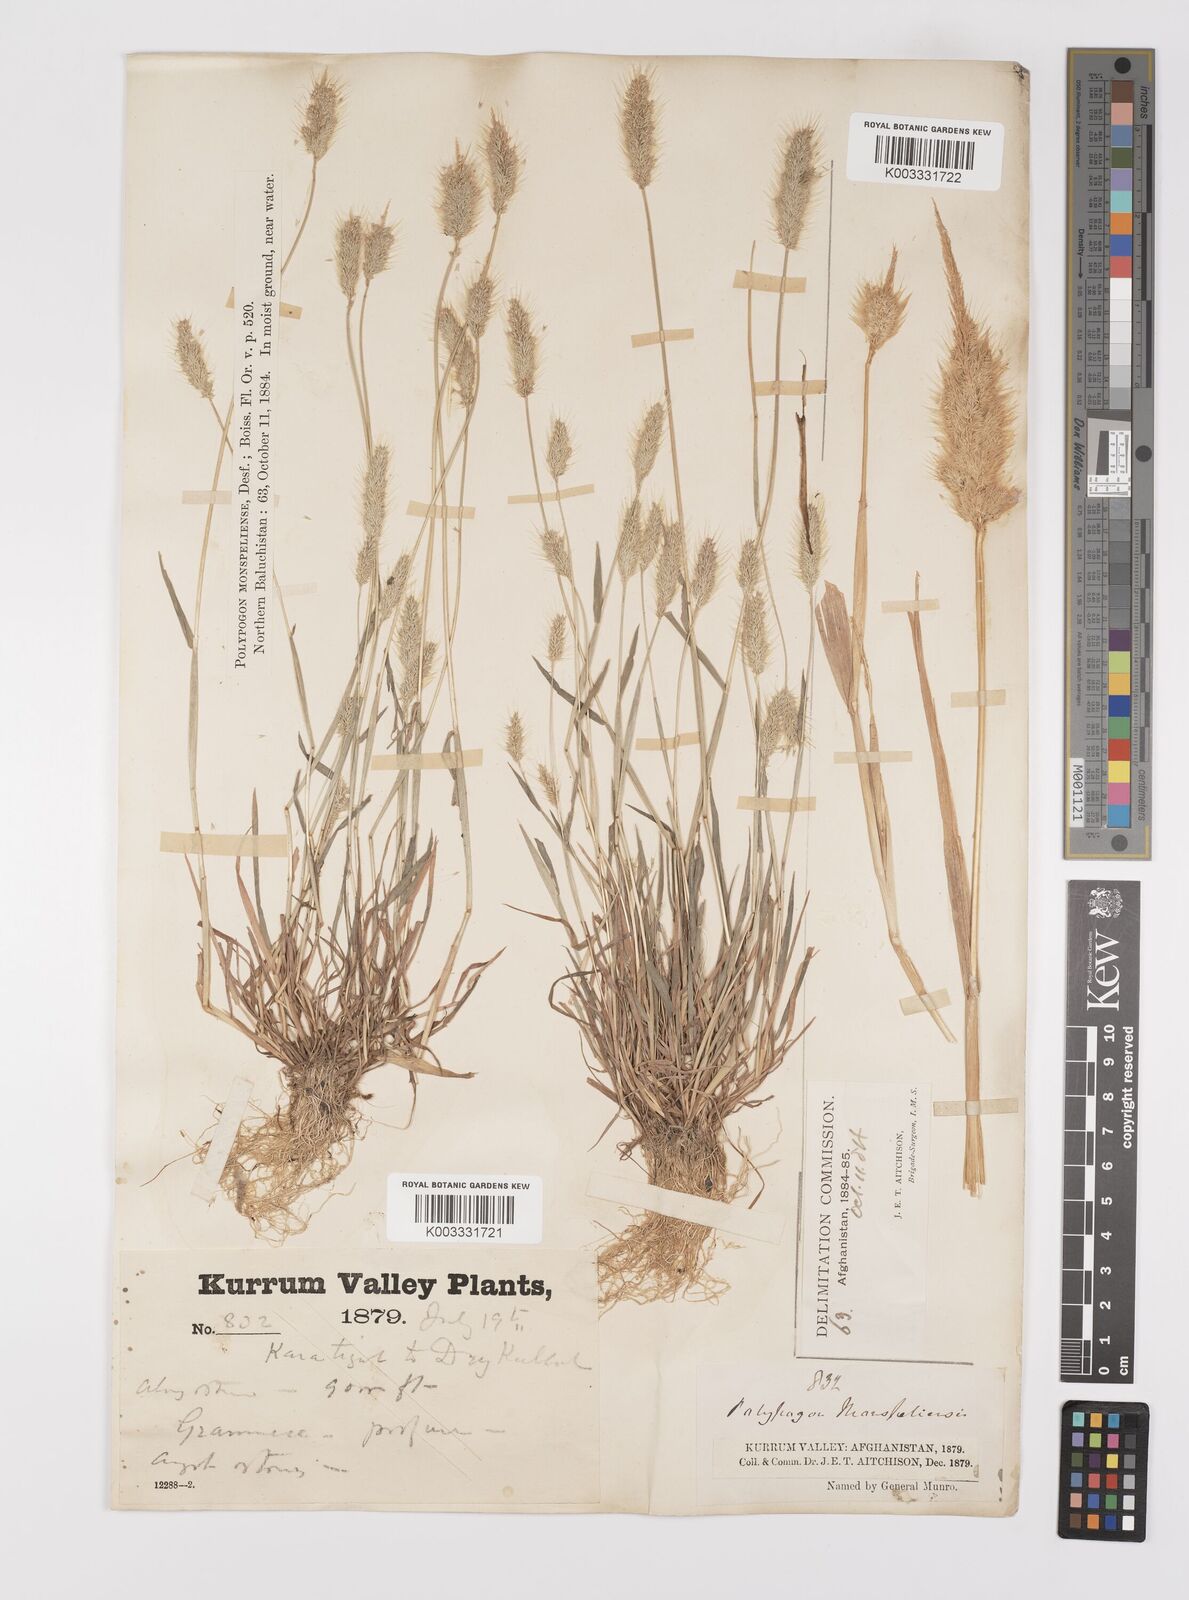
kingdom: Plantae
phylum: Tracheophyta
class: Liliopsida
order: Poales
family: Poaceae
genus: Polypogon
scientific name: Polypogon monspeliensis
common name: Annual rabbitsfoot grass
